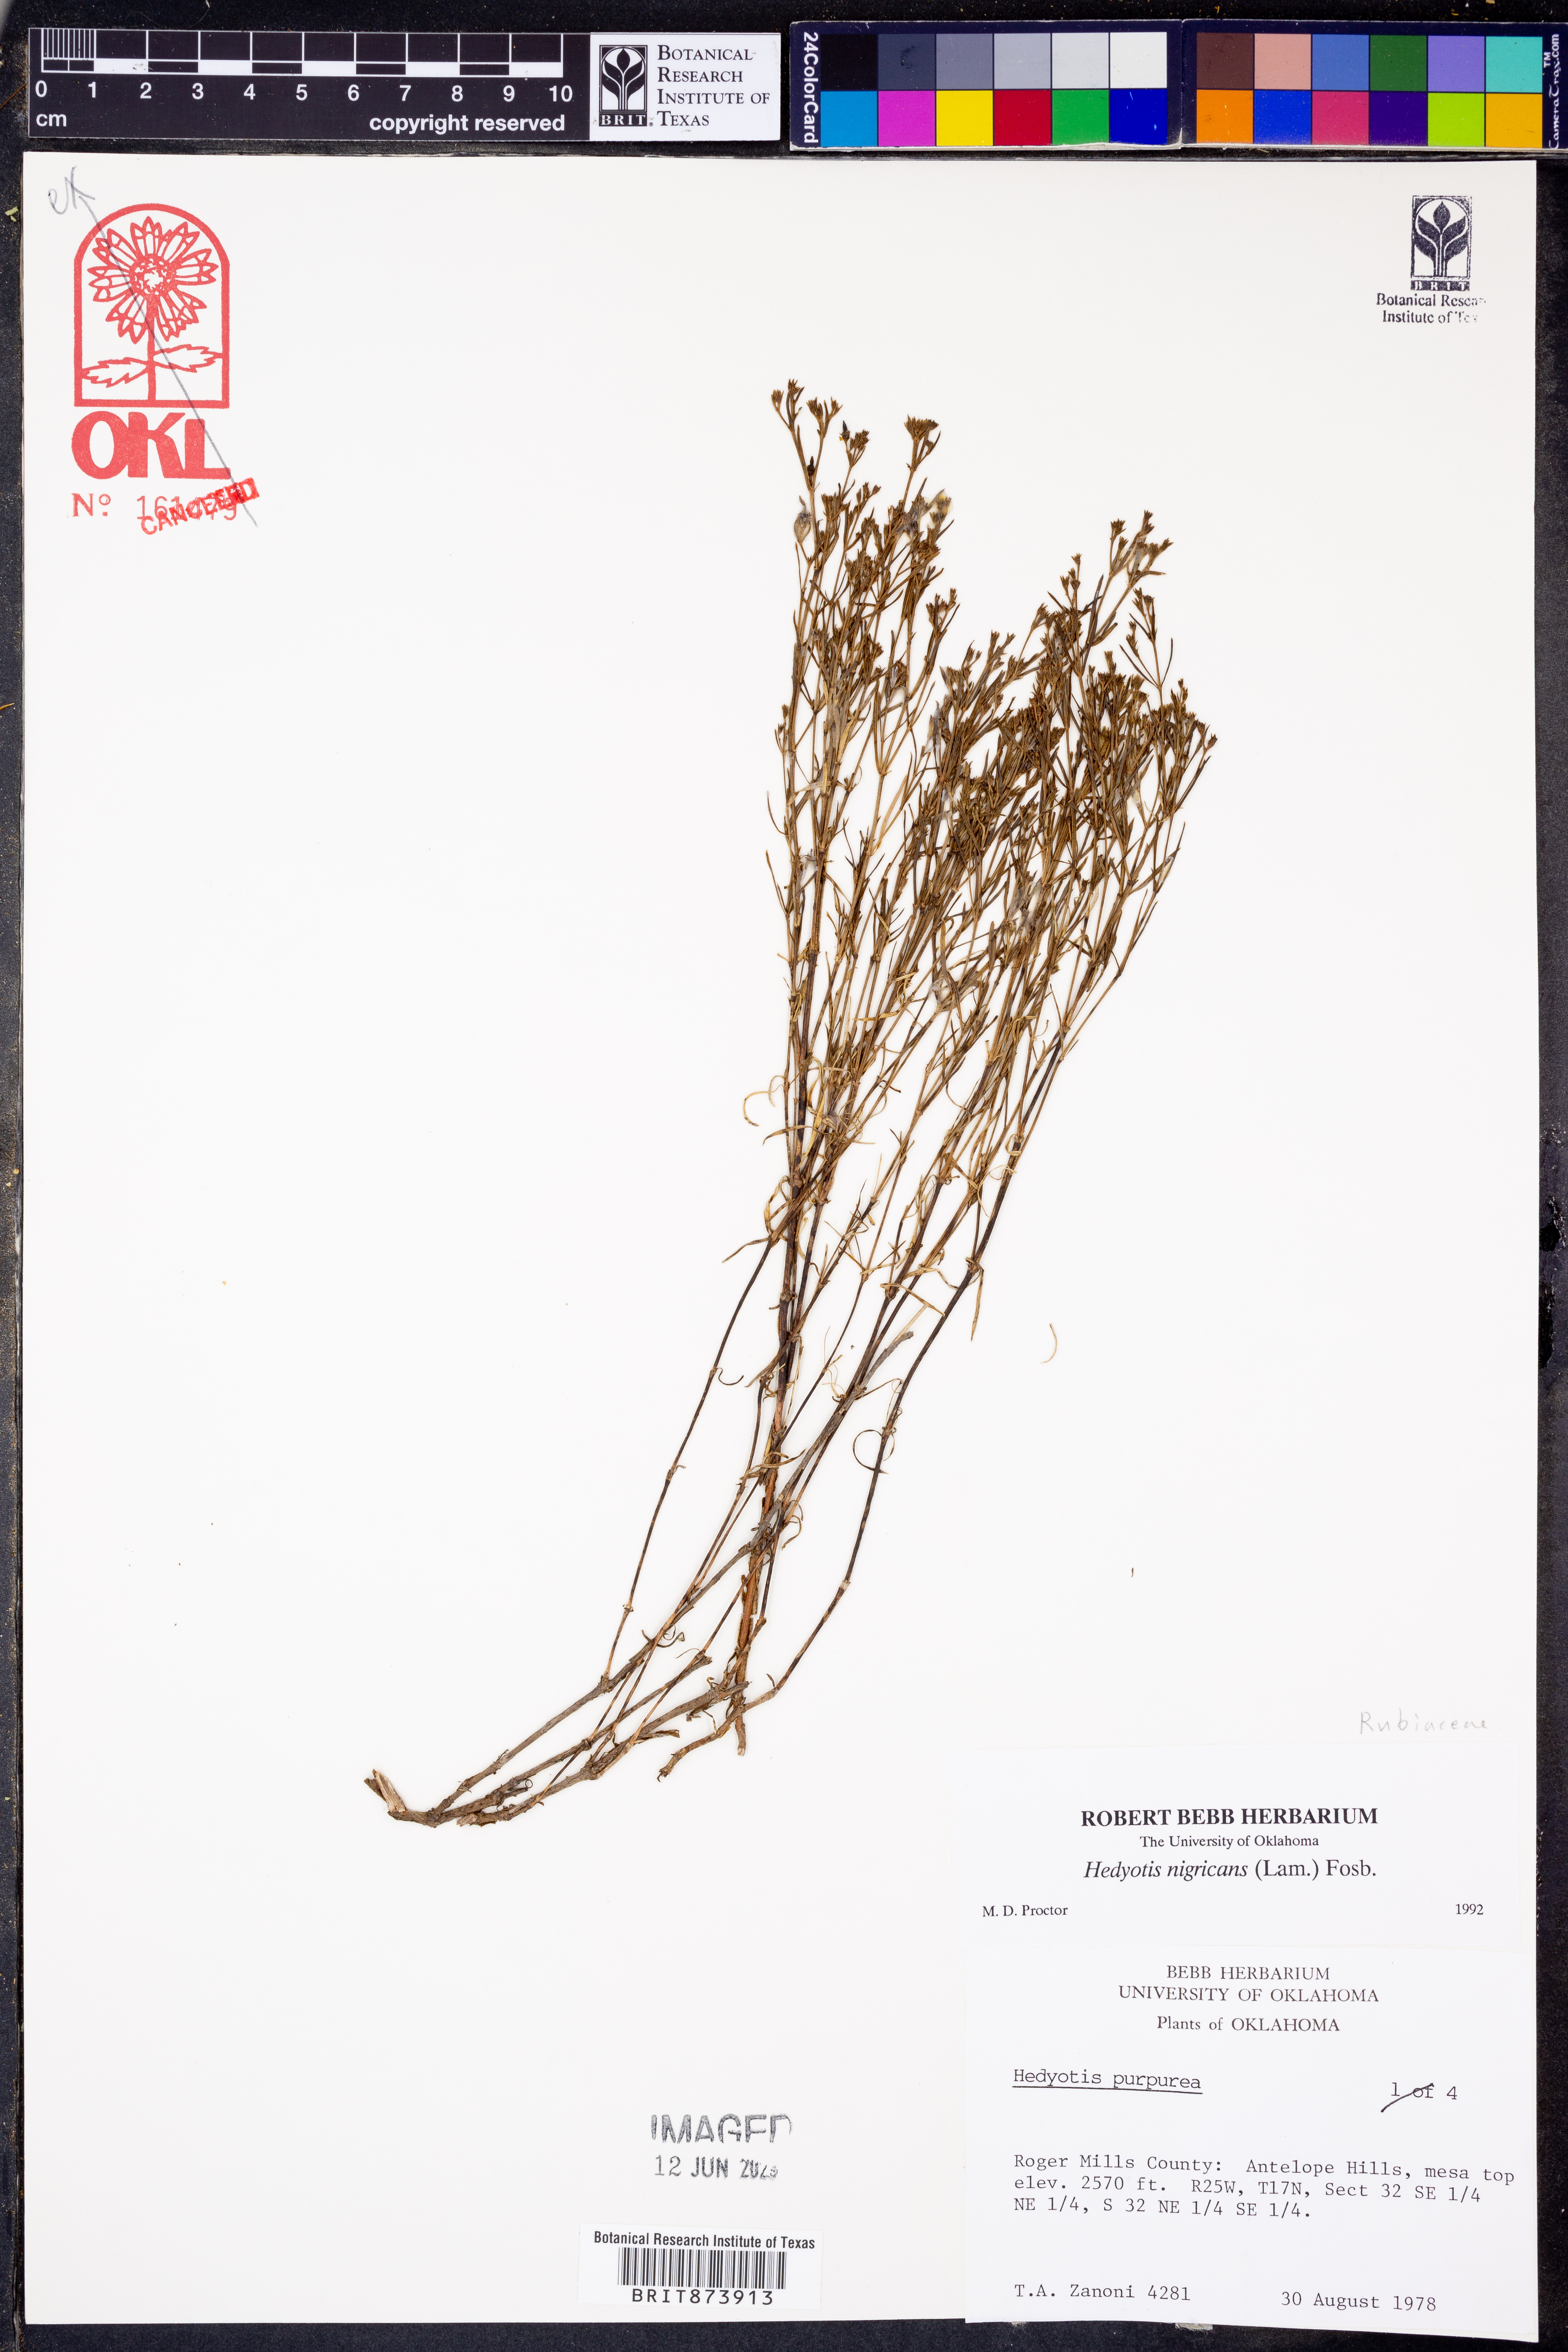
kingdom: Plantae
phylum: Tracheophyta
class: Magnoliopsida
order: Gentianales
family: Rubiaceae
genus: Stenaria
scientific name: Stenaria nigricans
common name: Diamondflowers
